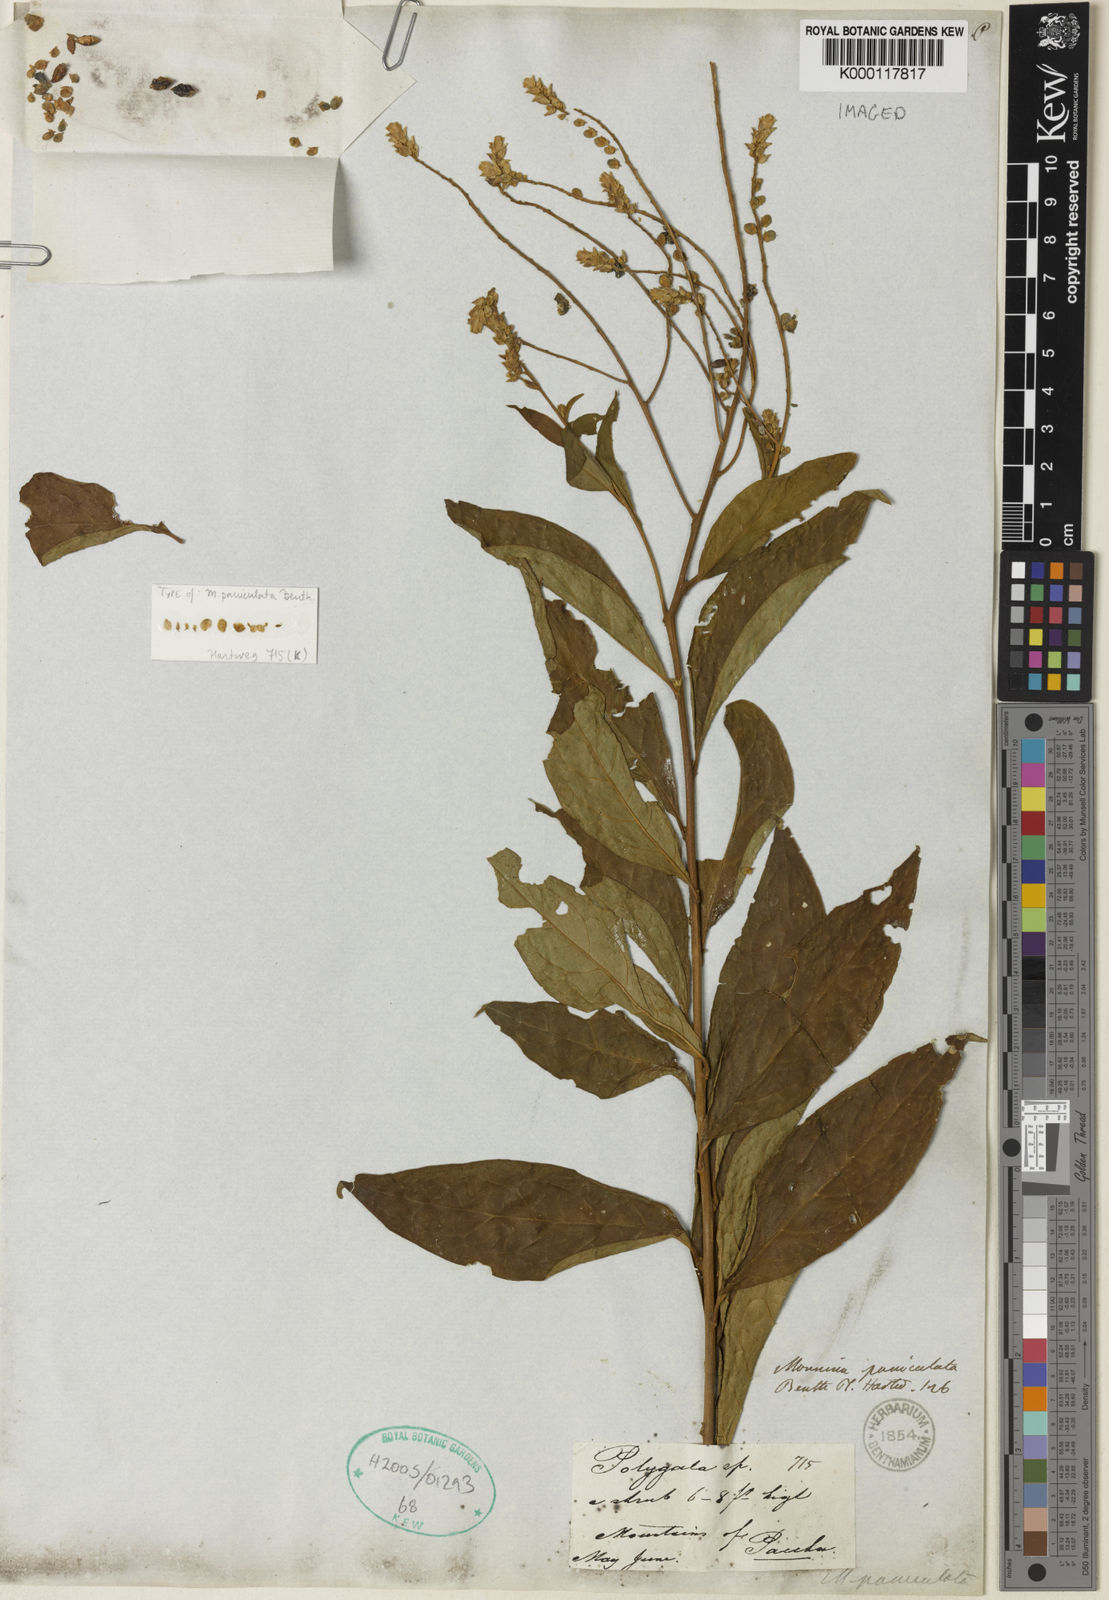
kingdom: Plantae
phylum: Tracheophyta
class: Magnoliopsida
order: Fabales
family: Polygalaceae
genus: Monnina
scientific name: Monnina polystachya
